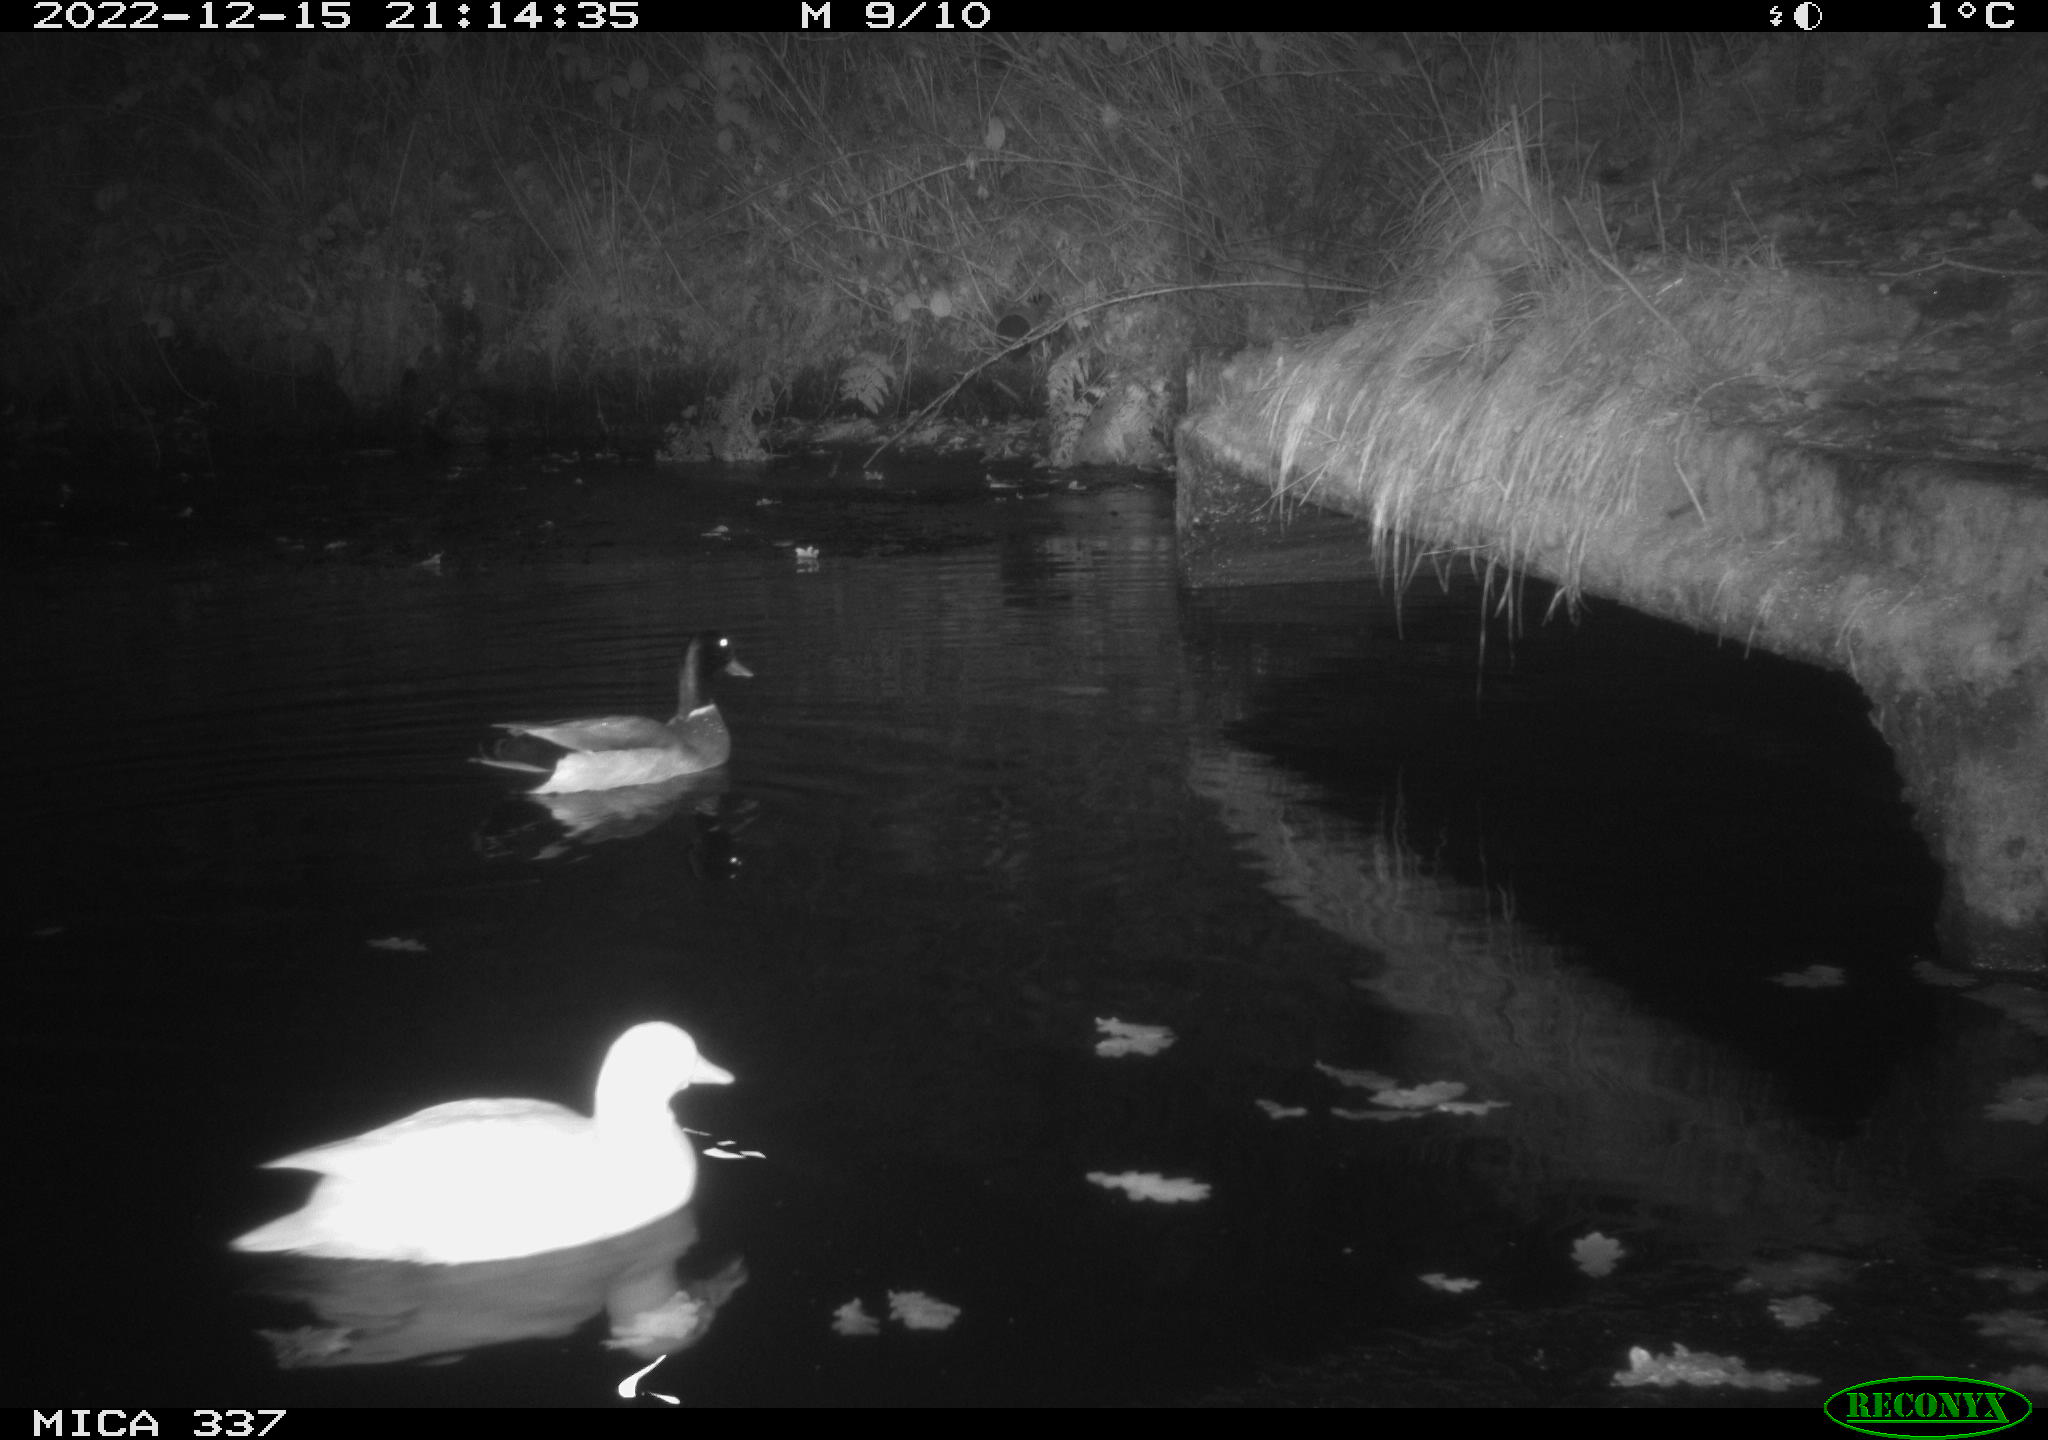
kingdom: Animalia
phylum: Chordata
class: Aves
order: Anseriformes
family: Anatidae
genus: Anas
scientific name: Anas
